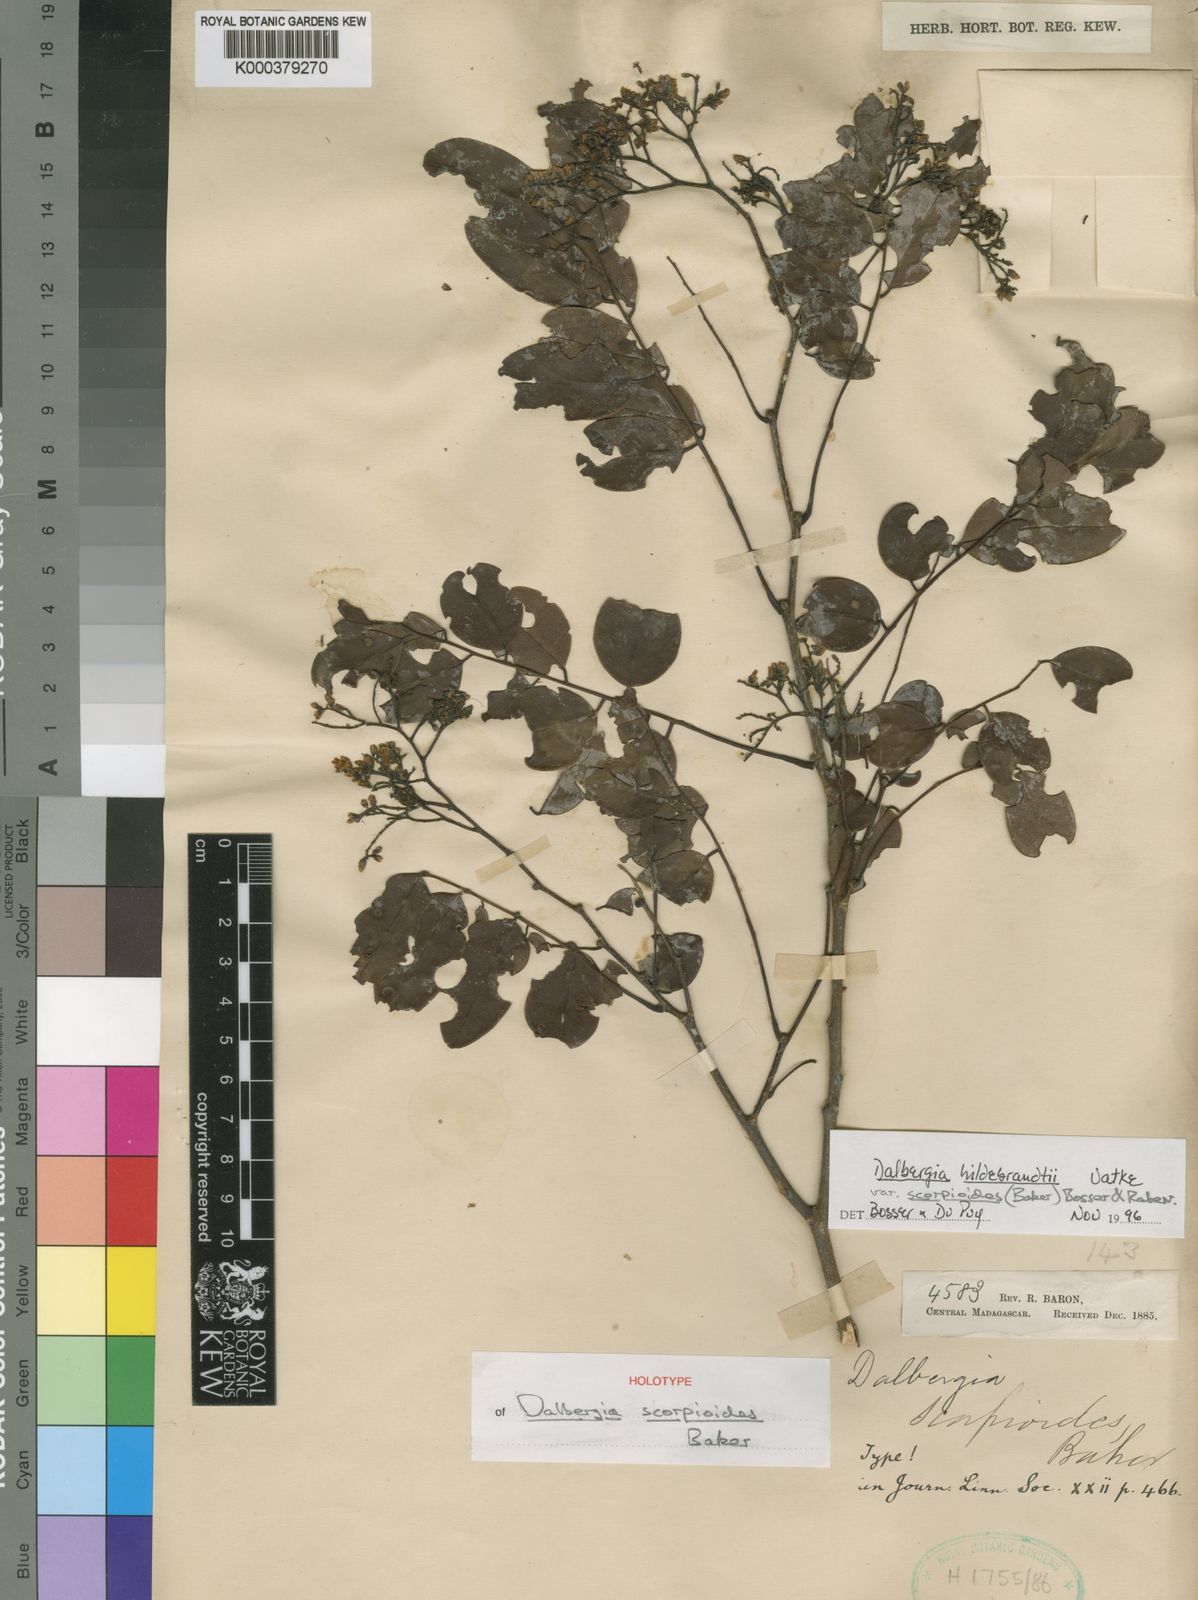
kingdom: Plantae
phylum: Tracheophyta
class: Magnoliopsida
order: Fabales
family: Fabaceae
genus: Dalbergia
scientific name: Dalbergia hildebrandtii
